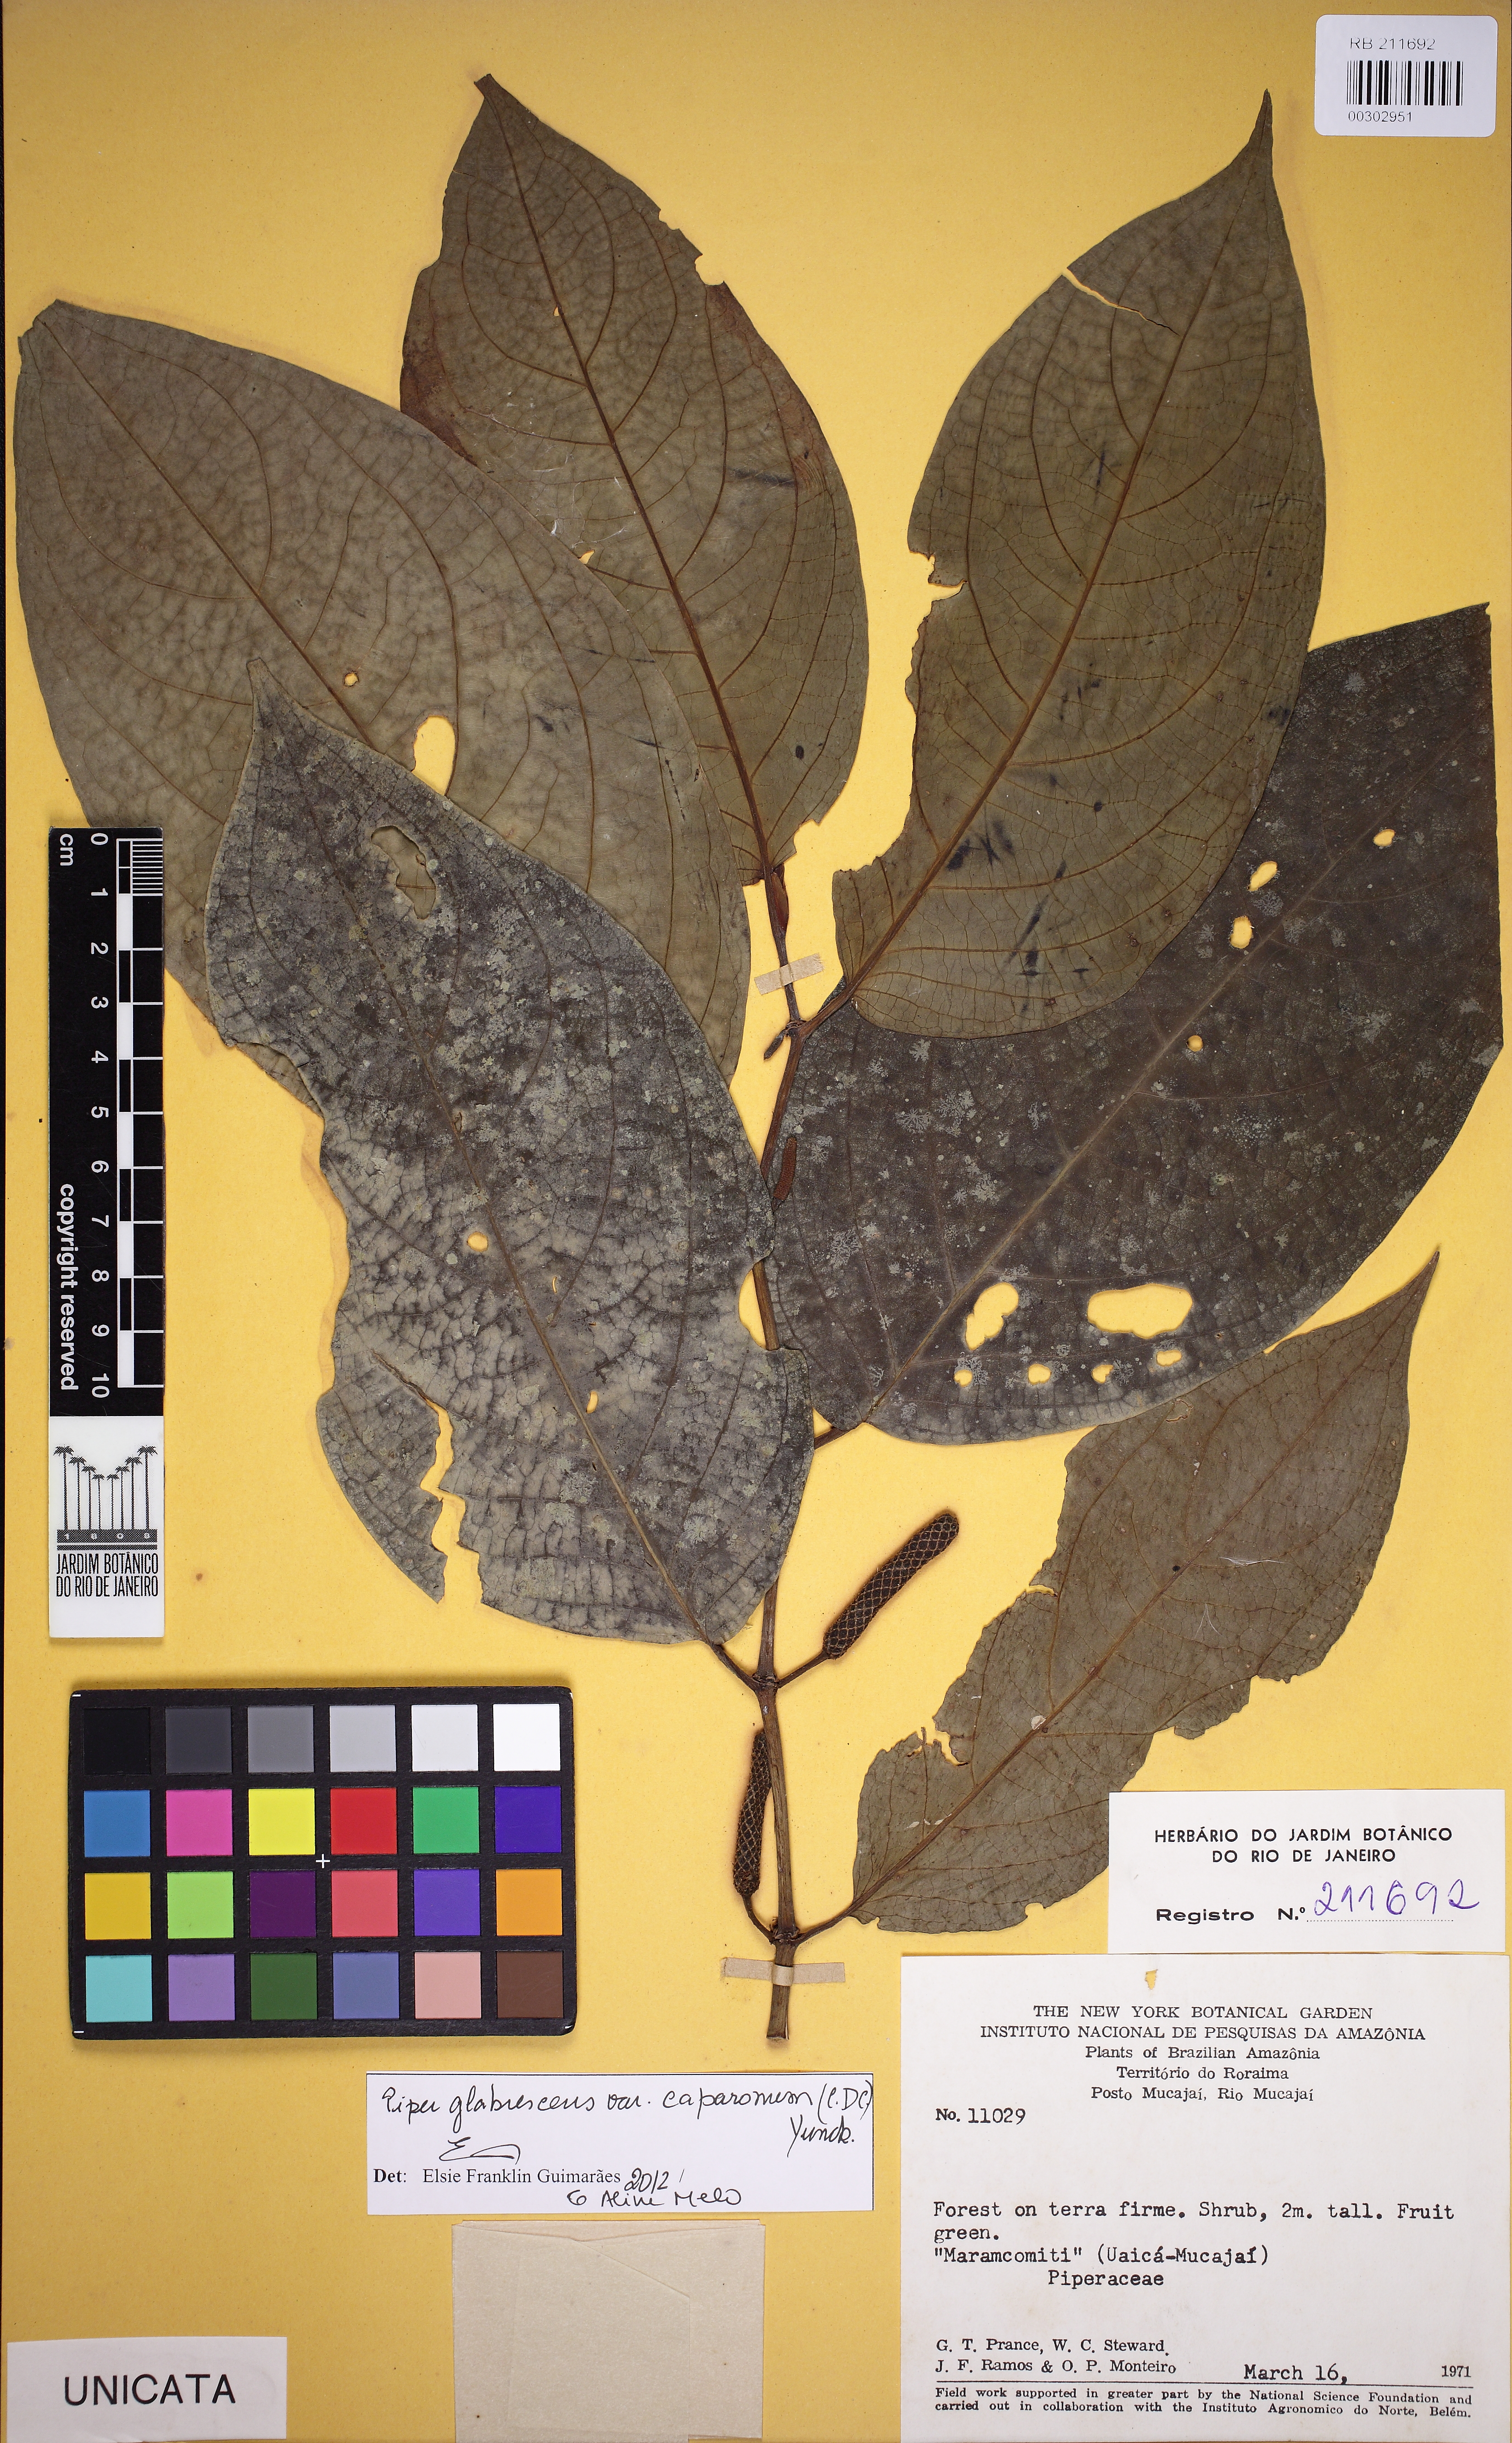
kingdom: Plantae
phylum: Tracheophyta
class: Magnoliopsida
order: Piperales
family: Piperaceae
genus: Piper
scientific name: Piper glabrescens
